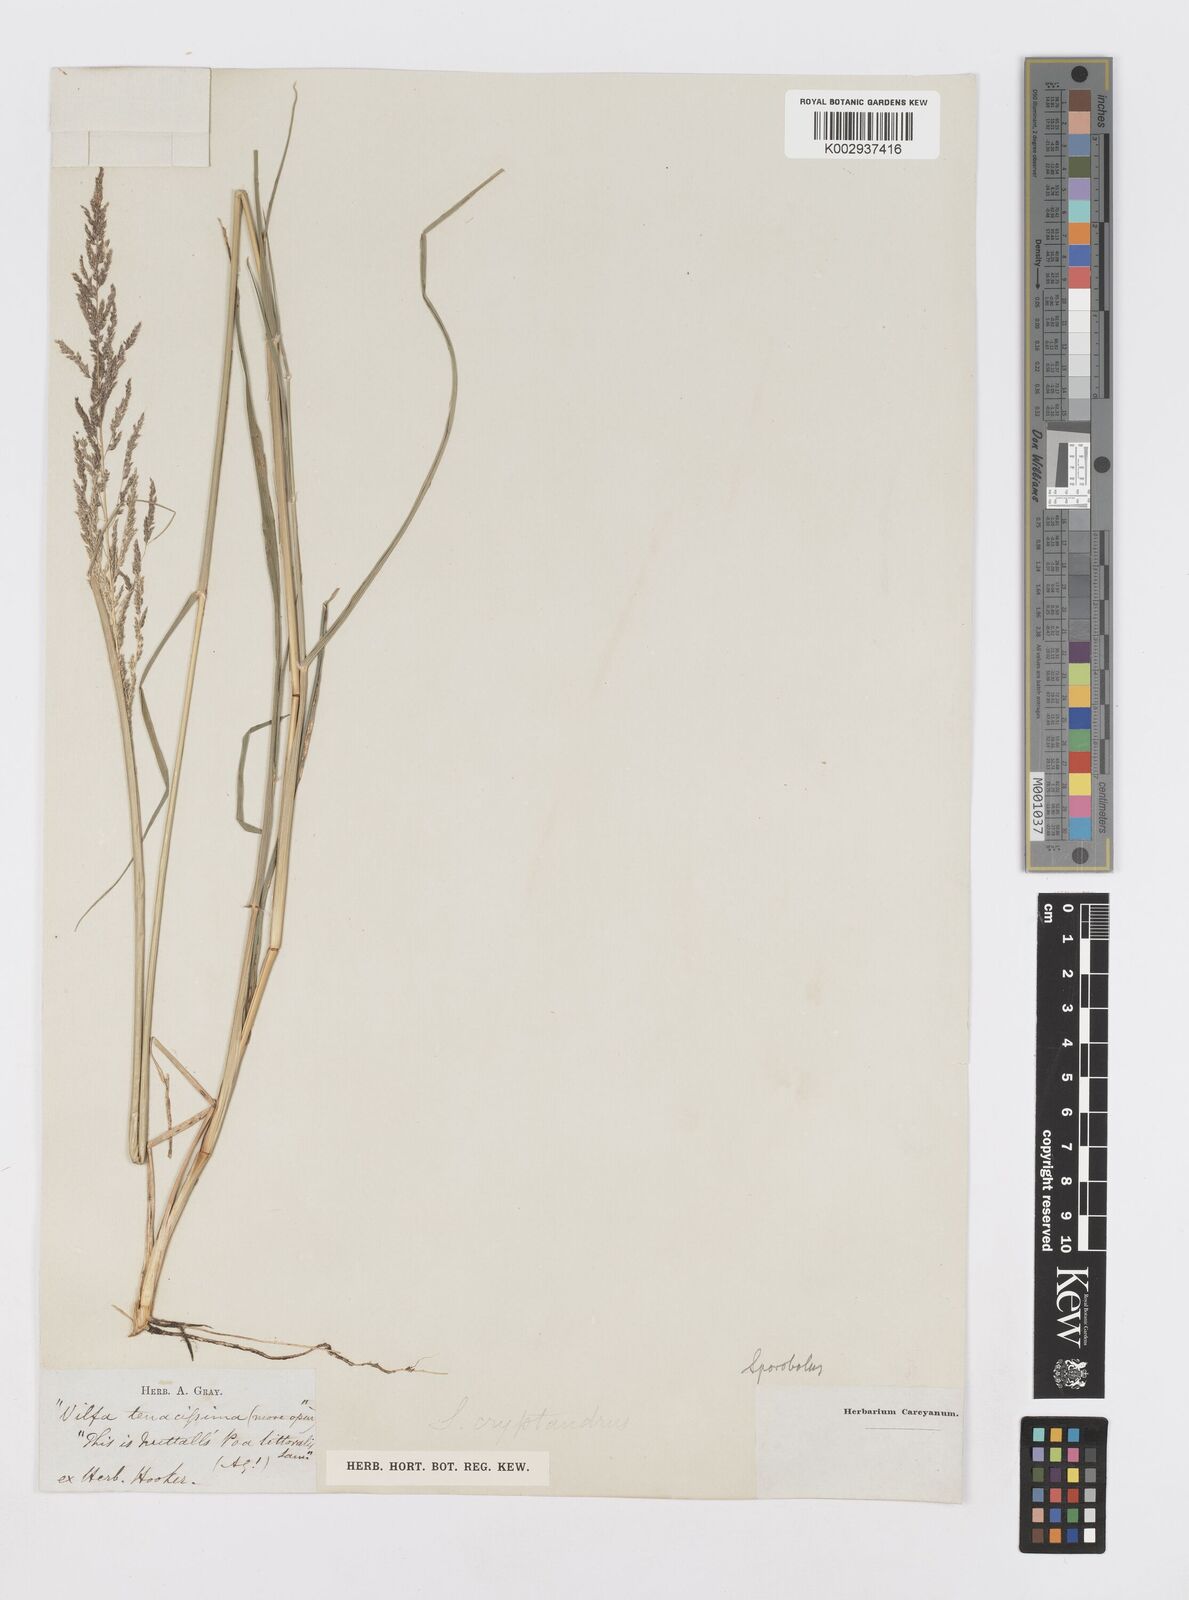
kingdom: Plantae
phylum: Tracheophyta
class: Liliopsida
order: Poales
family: Poaceae
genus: Sporobolus
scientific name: Sporobolus cryptandrus
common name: Sand dropseed
